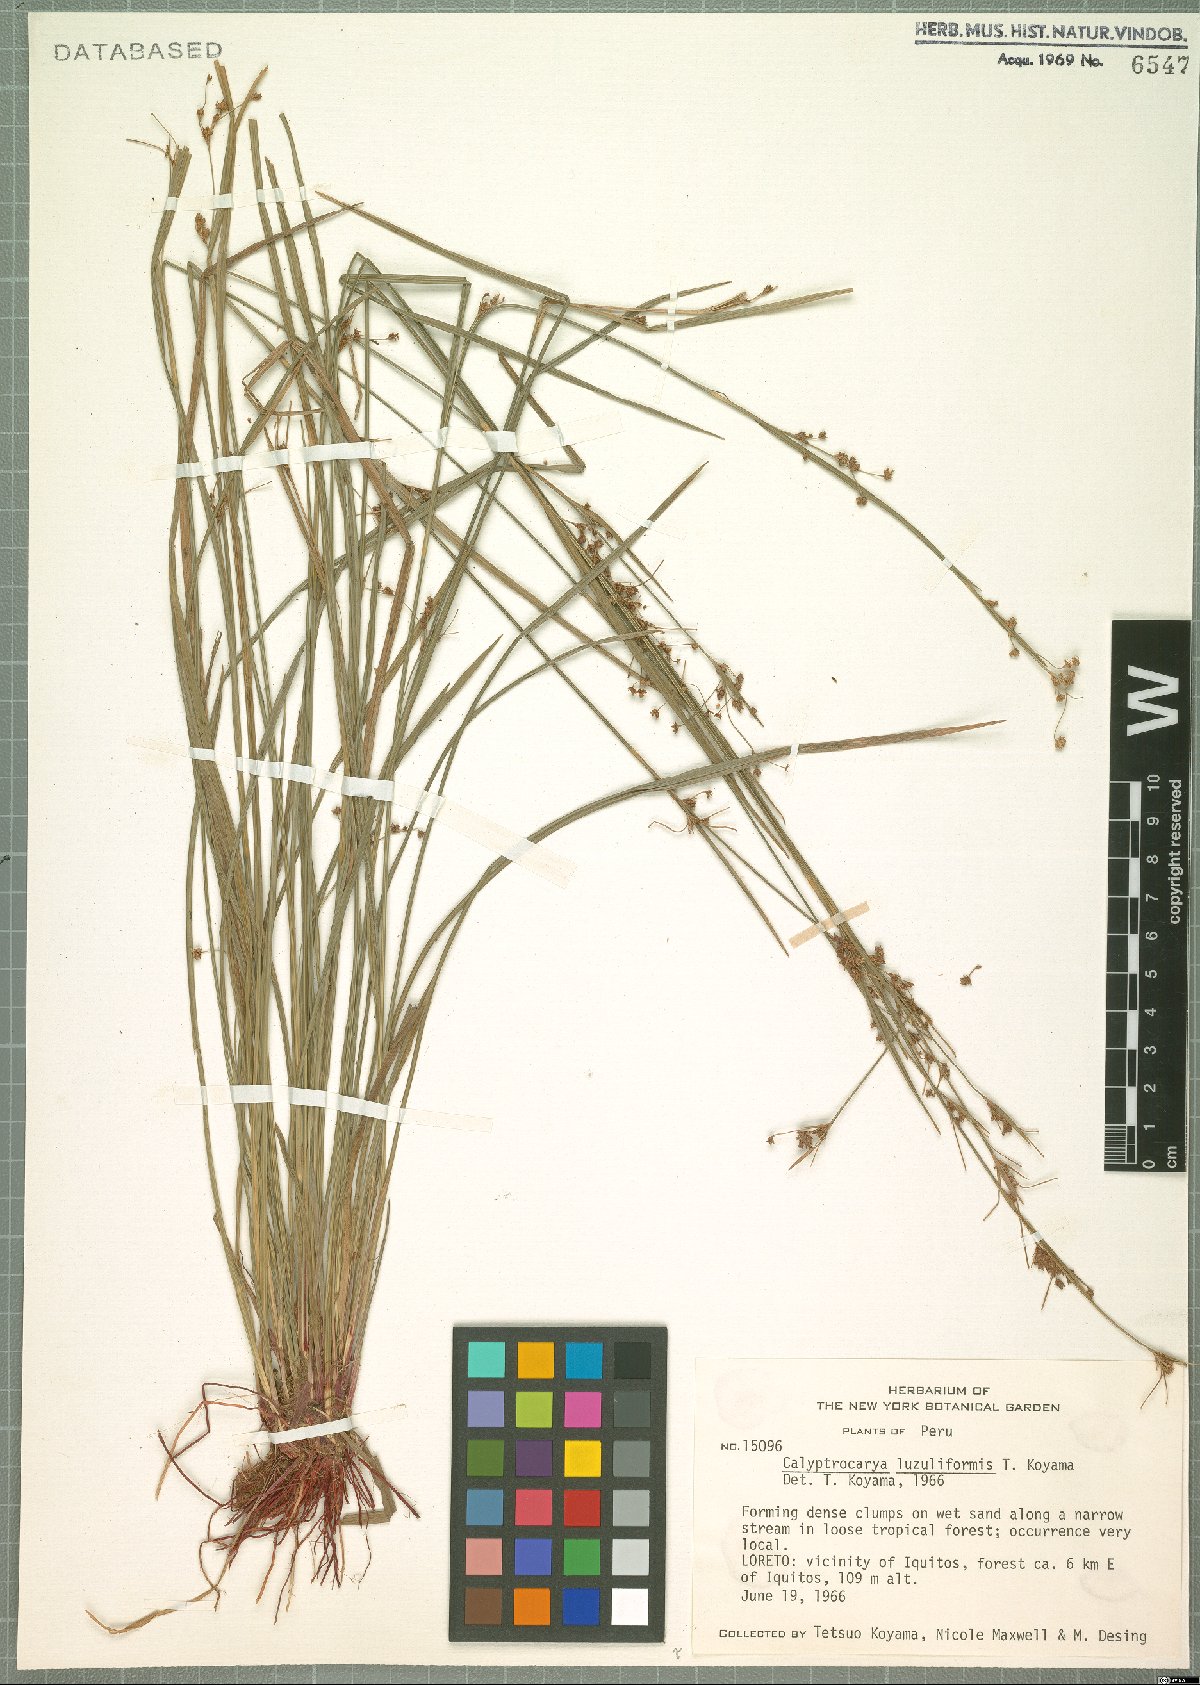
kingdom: Plantae
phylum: Tracheophyta
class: Liliopsida
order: Poales
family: Cyperaceae
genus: Calyptrocarya
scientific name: Calyptrocarya luzuliformis
